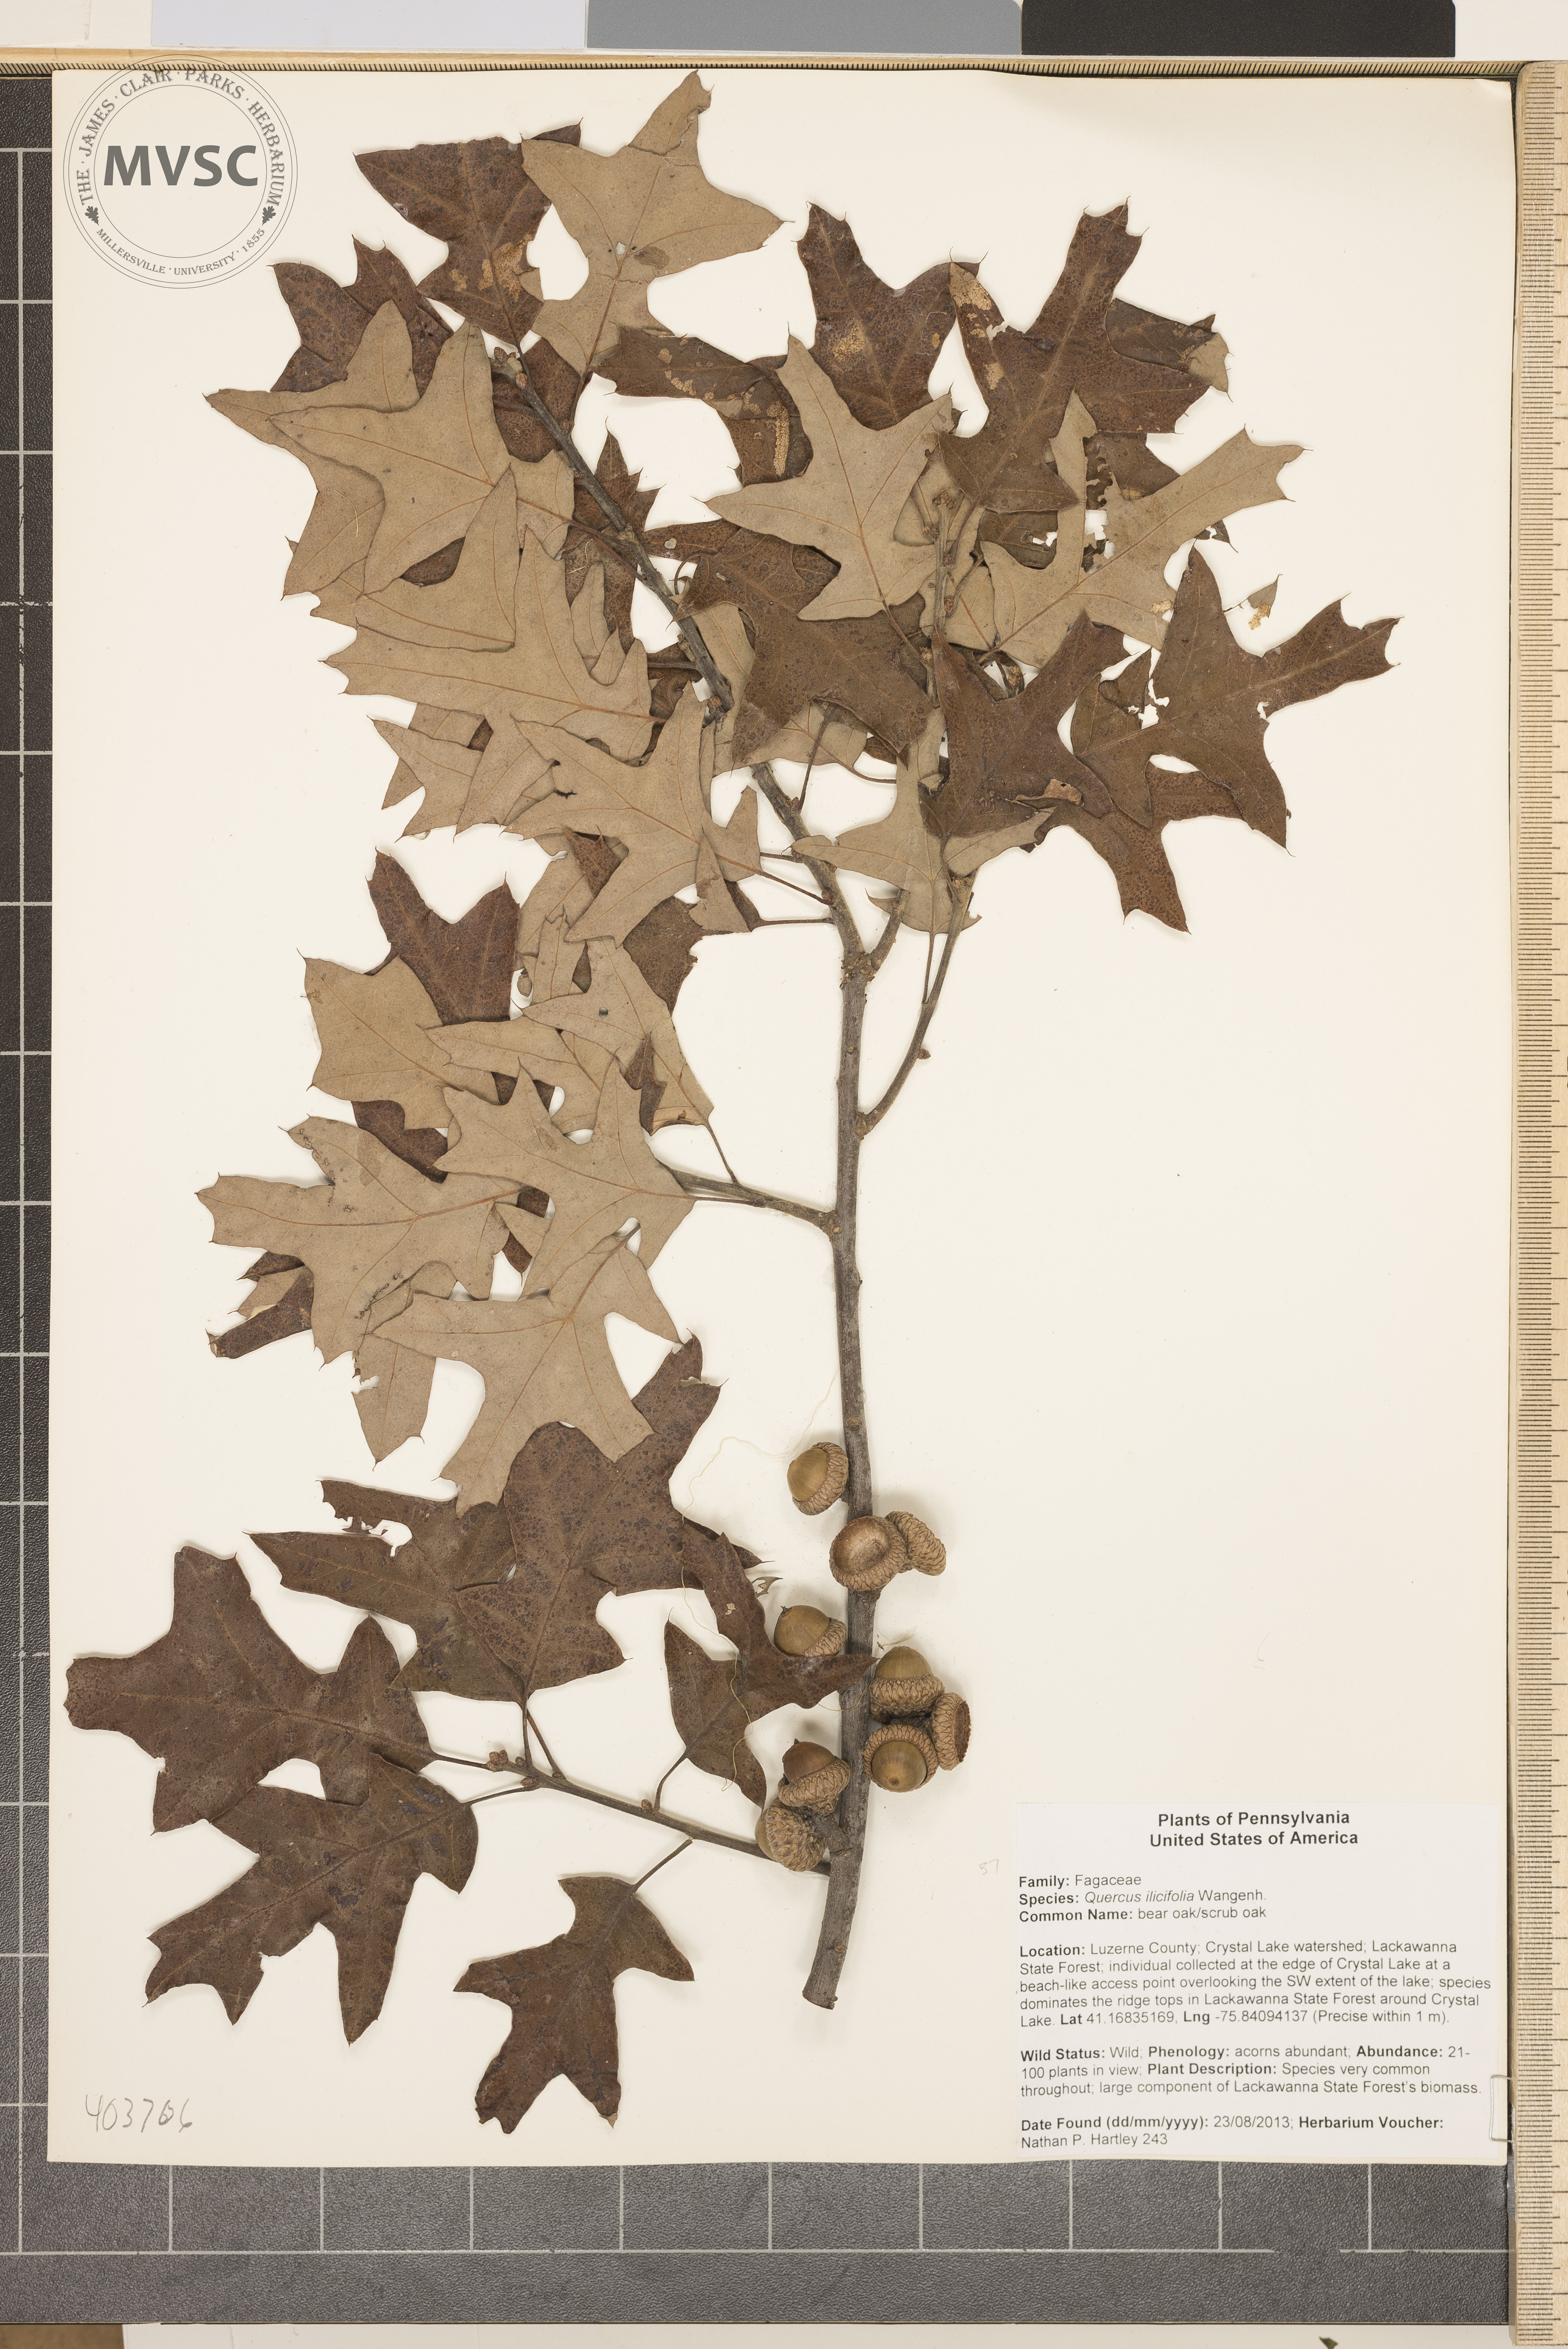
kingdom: Plantae
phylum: Tracheophyta
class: Magnoliopsida
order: Fagales
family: Fagaceae
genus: Quercus
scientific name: Quercus ilicifolia
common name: scrub oak
